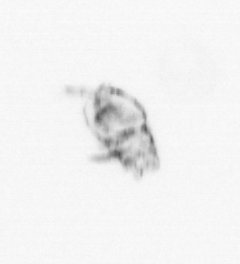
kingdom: Animalia
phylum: Arthropoda
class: Maxillopoda
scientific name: Maxillopoda
